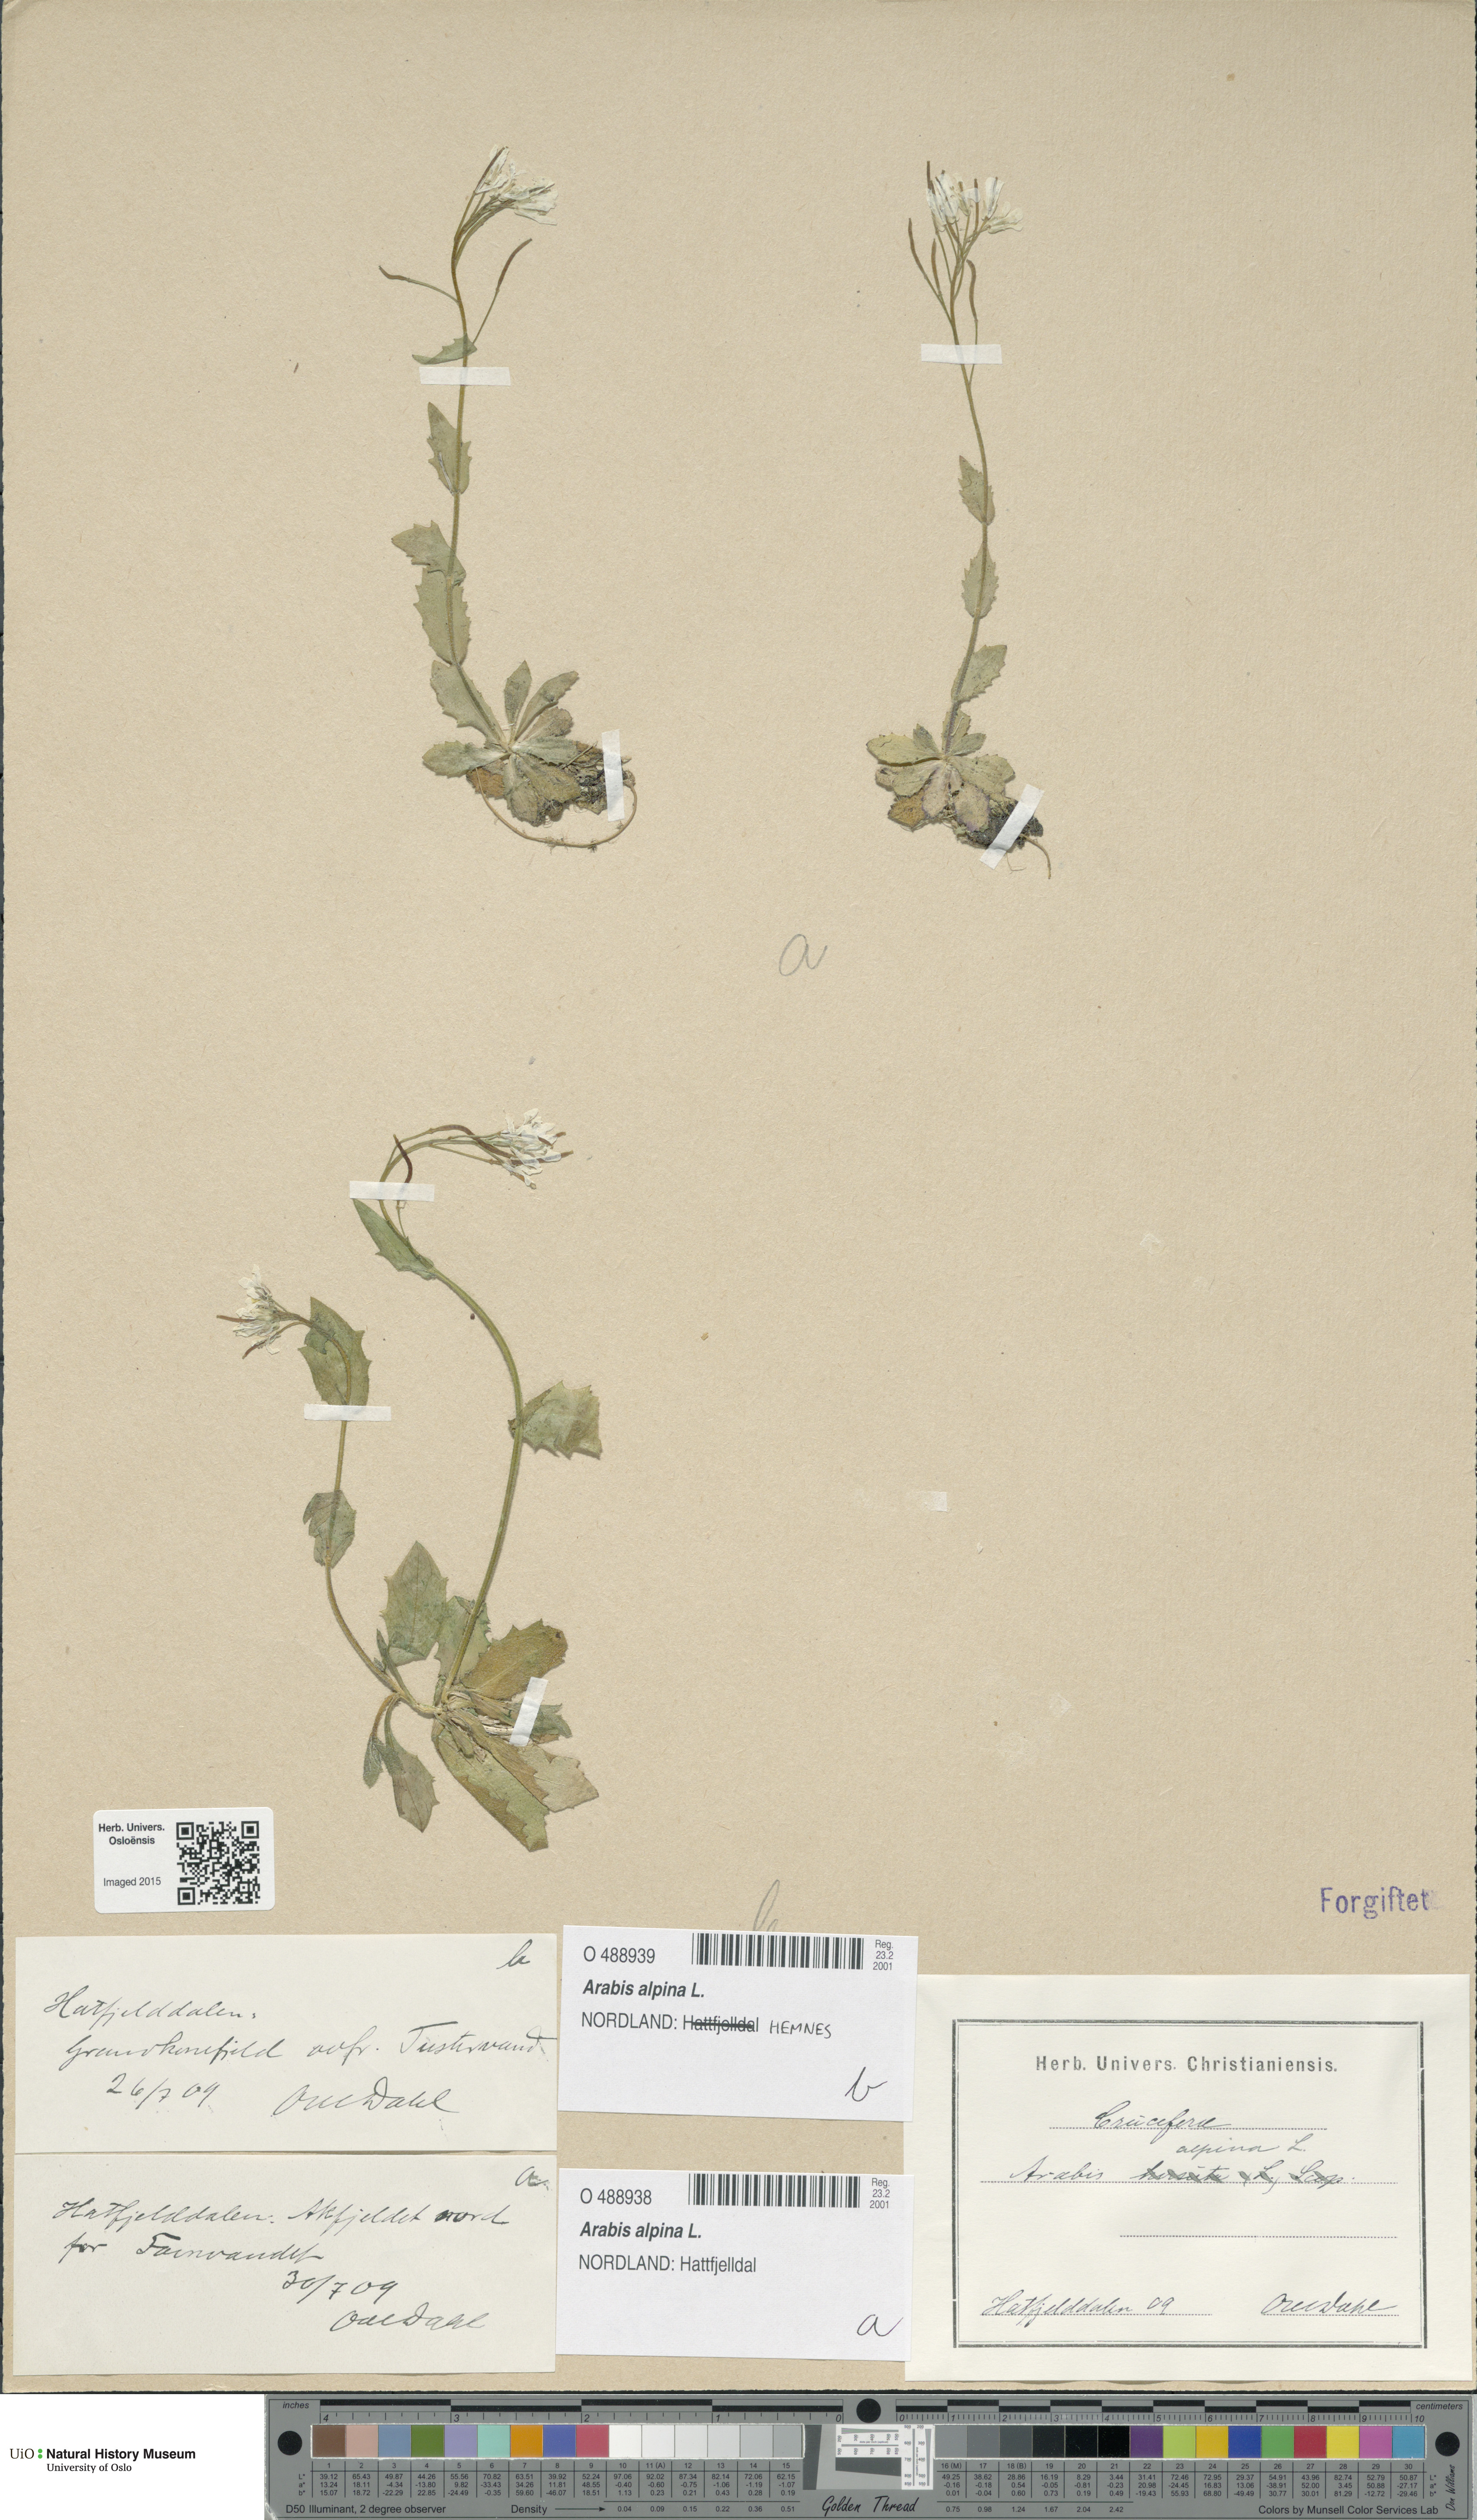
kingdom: Plantae
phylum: Tracheophyta
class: Magnoliopsida
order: Brassicales
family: Brassicaceae
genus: Arabis
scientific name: Arabis alpina
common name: Alpine rock-cress
